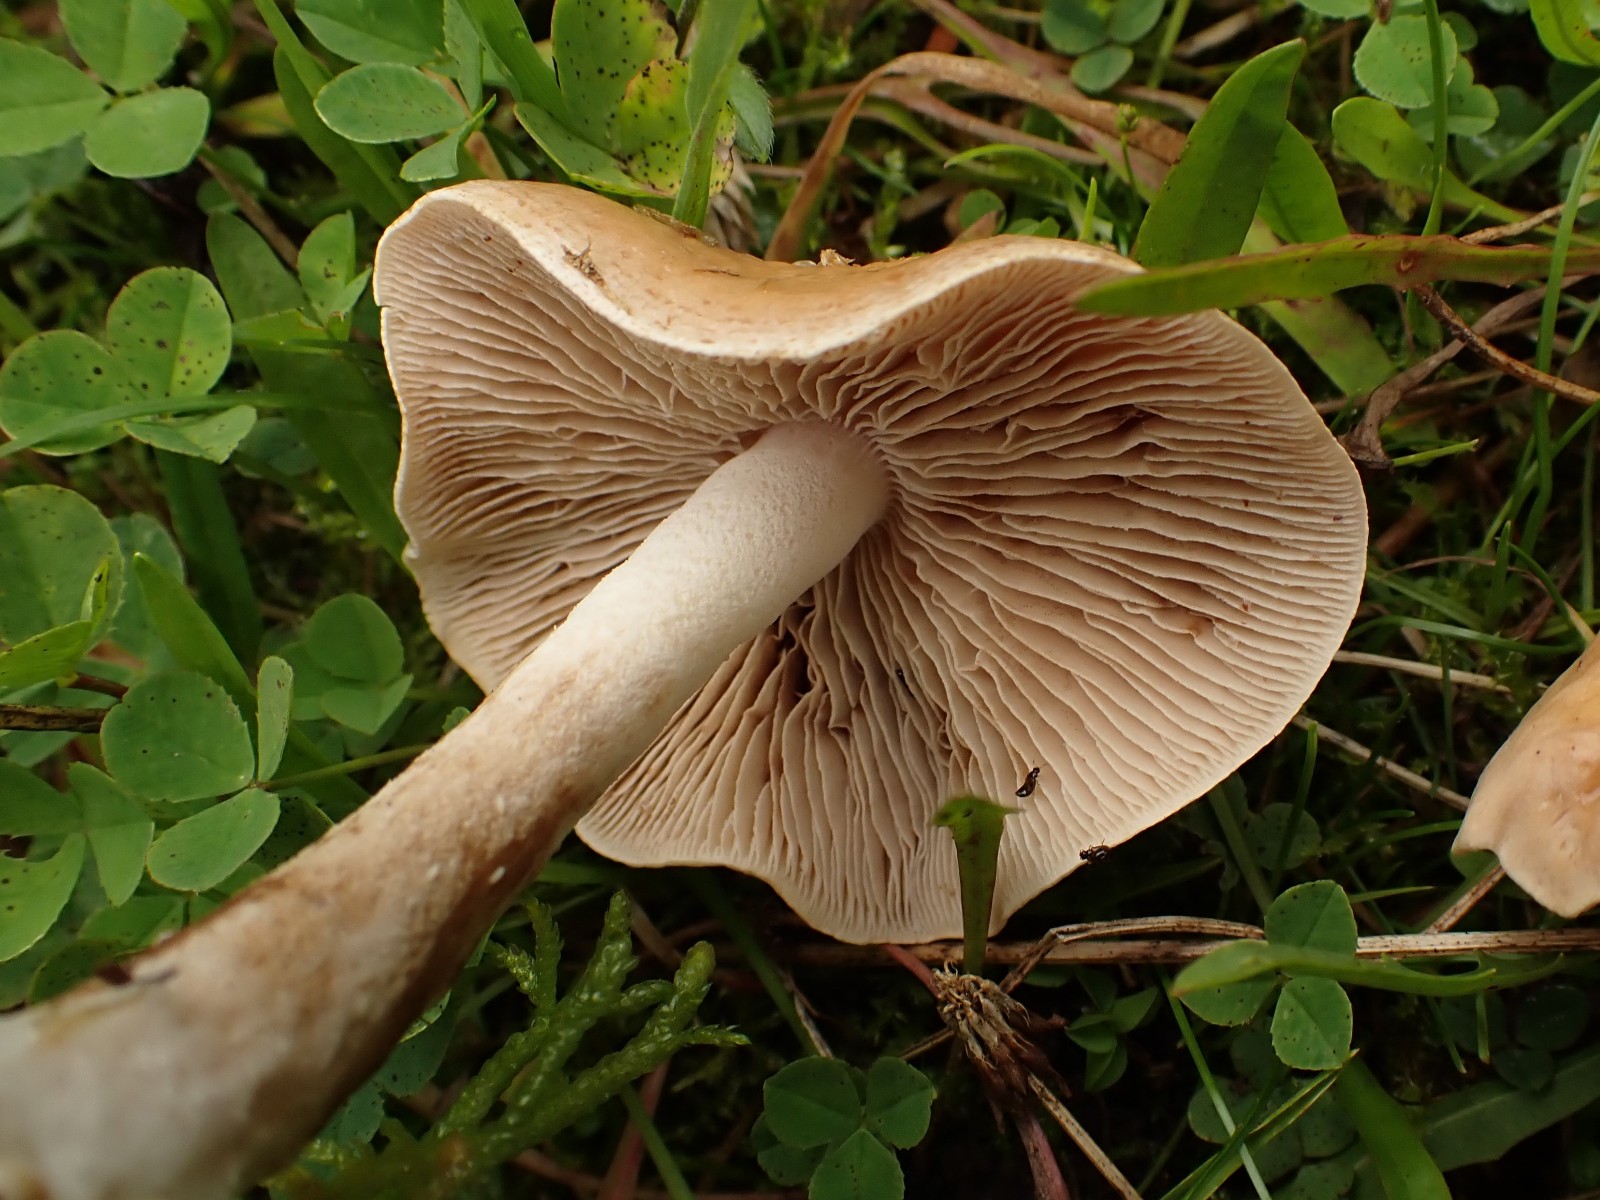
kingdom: Fungi
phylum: Basidiomycota
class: Agaricomycetes
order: Agaricales
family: Hymenogastraceae
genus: Hebeloma
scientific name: Hebeloma
